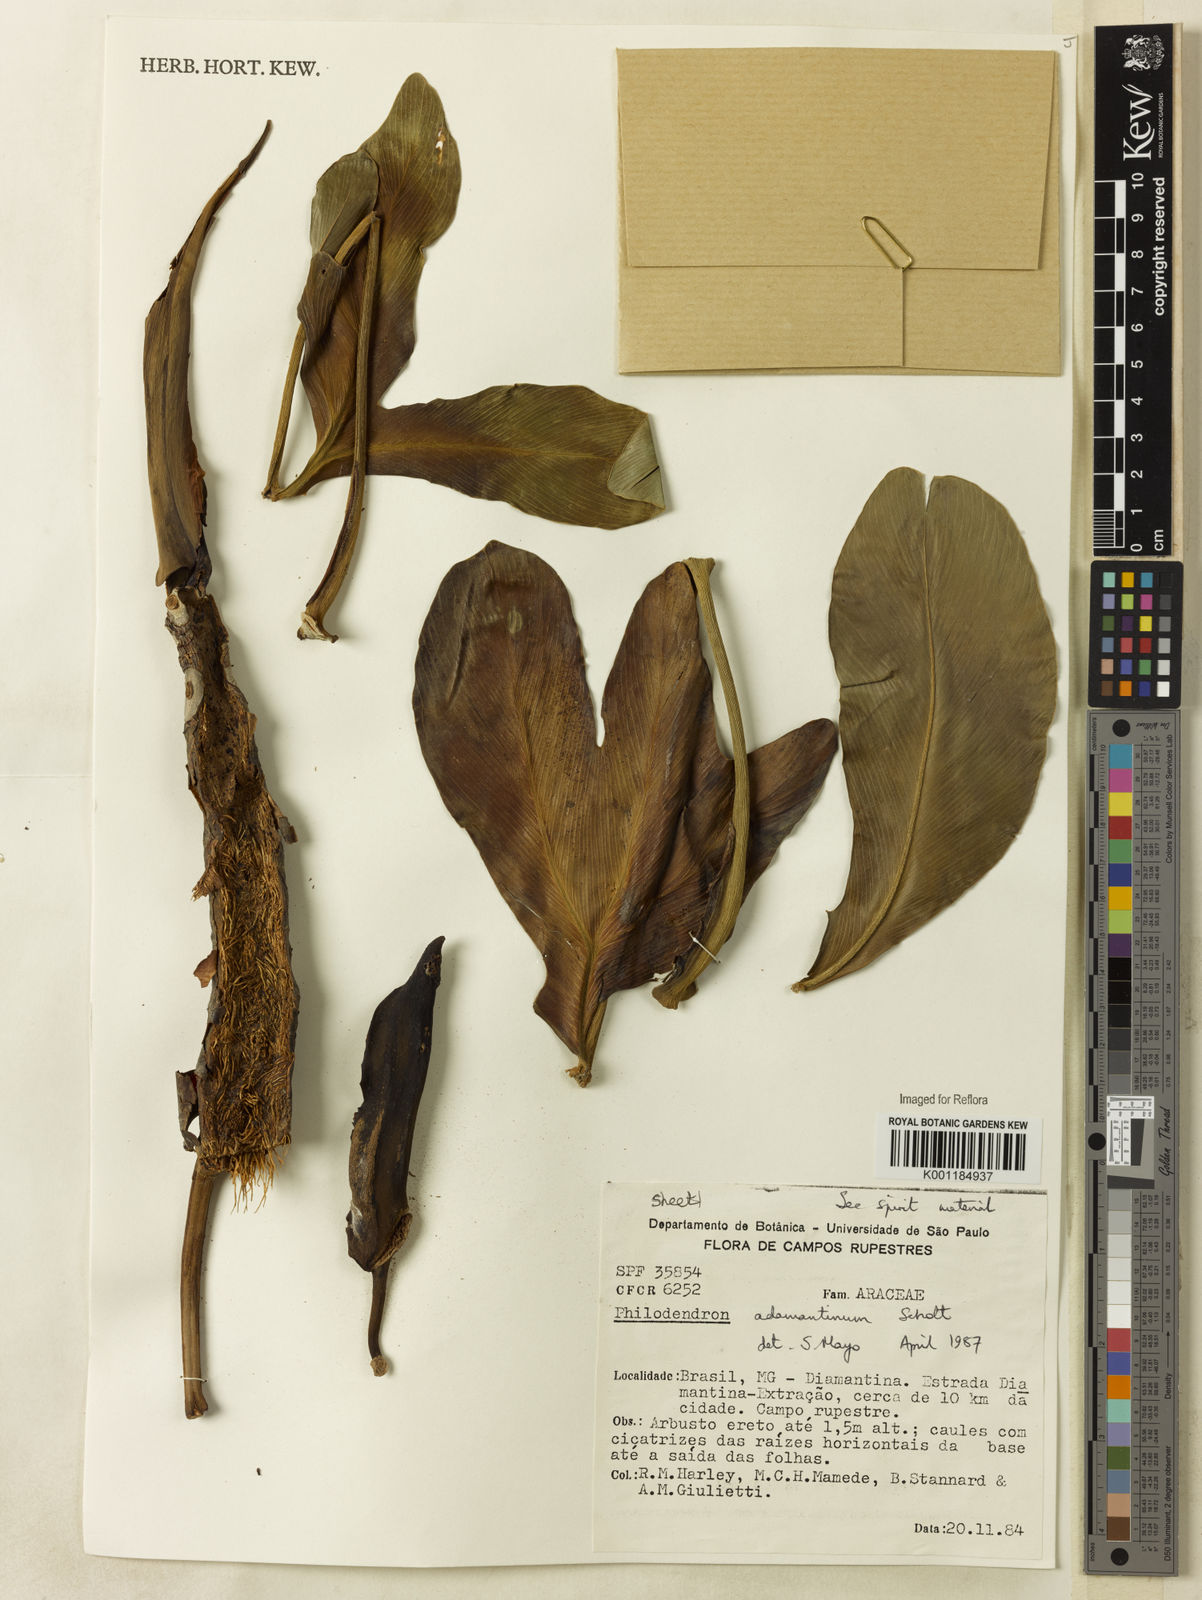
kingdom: Plantae
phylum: Tracheophyta
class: Liliopsida
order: Alismatales
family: Araceae
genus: Thaumatophyllum
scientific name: Thaumatophyllum adamantinum
